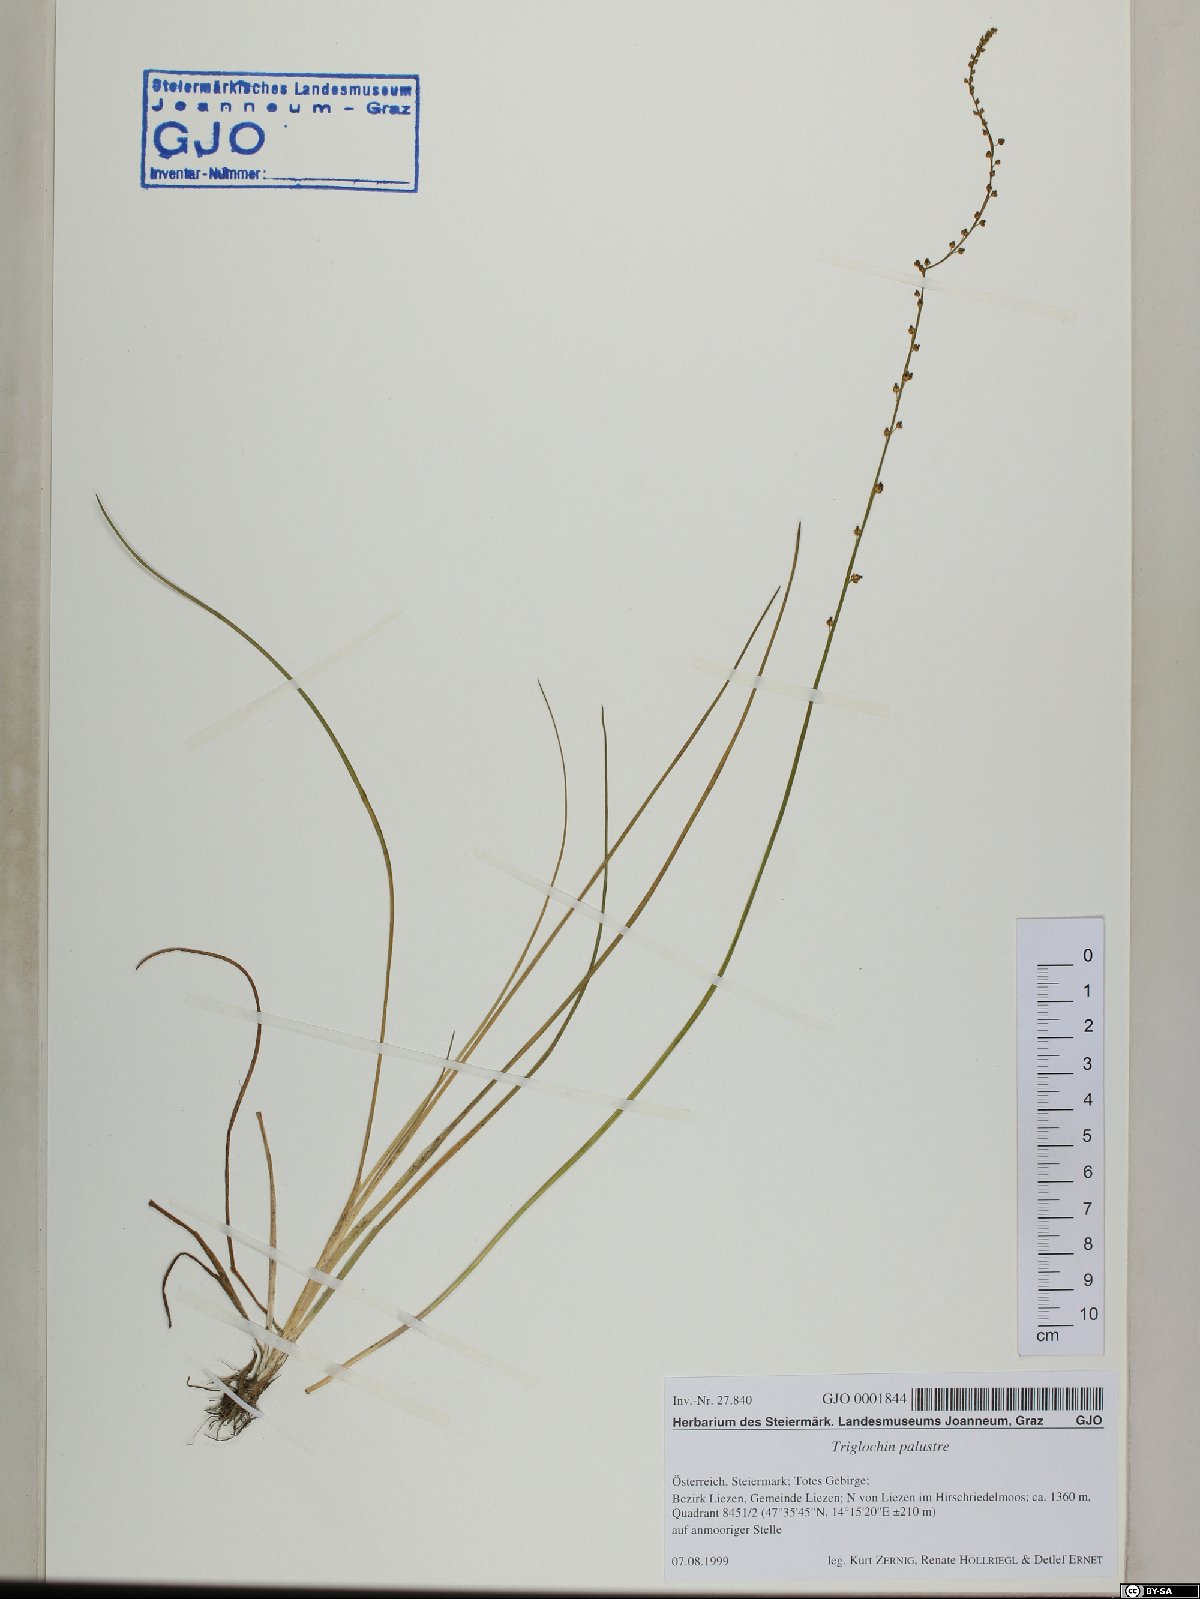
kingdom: Plantae
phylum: Tracheophyta
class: Liliopsida
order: Alismatales
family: Juncaginaceae
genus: Triglochin
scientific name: Triglochin palustris
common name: Marsh arrowgrass
